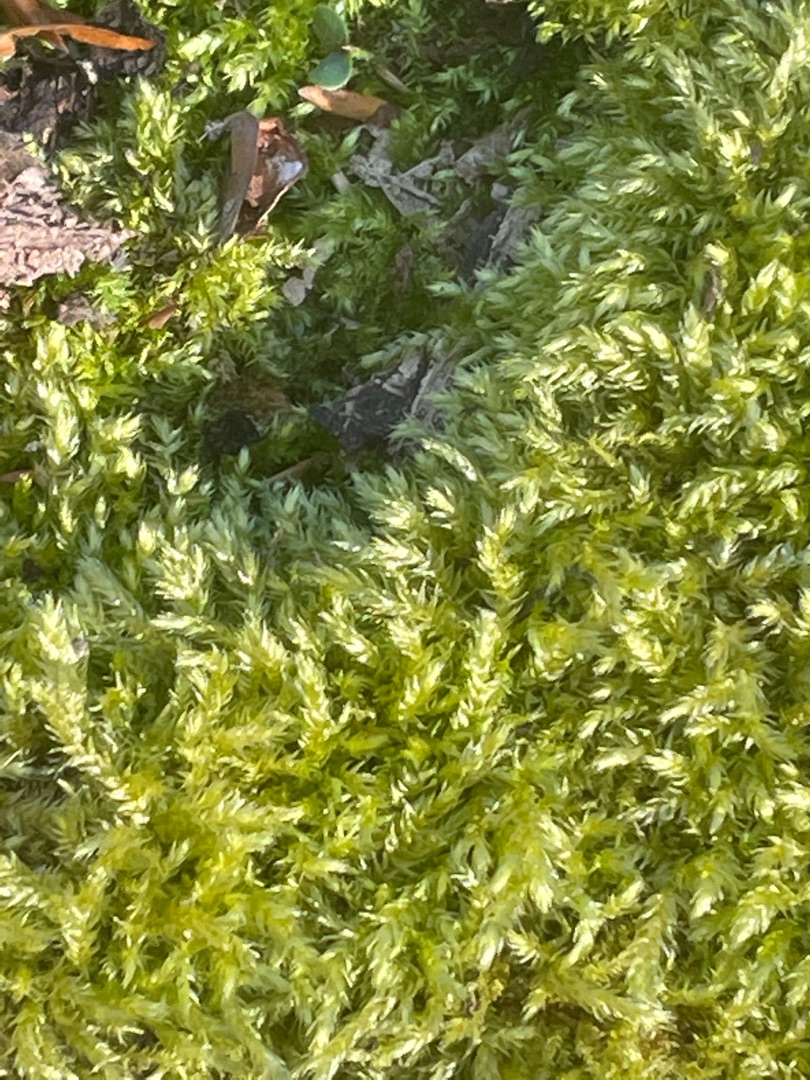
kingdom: Plantae
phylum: Bryophyta
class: Bryopsida
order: Hypnales
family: Brachytheciaceae
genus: Brachythecium
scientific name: Brachythecium rutabulum
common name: Almindelig kortkapsel
